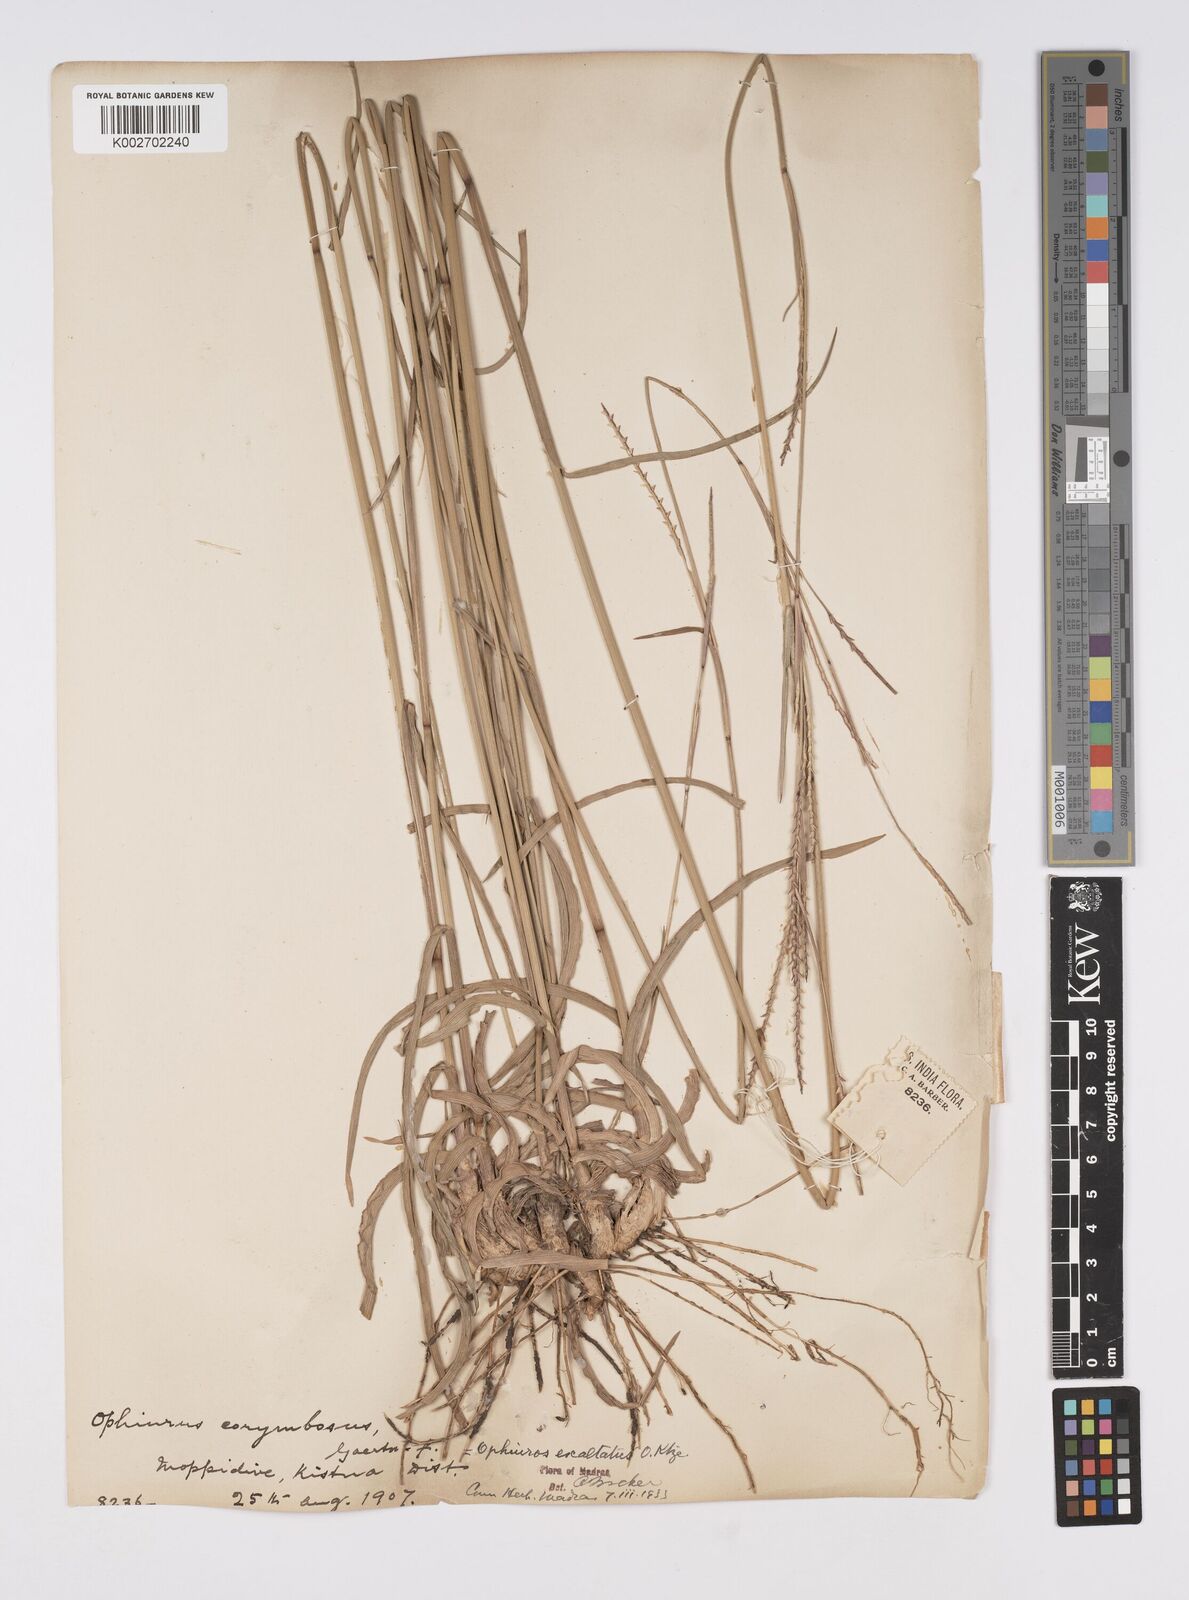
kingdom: Plantae
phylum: Tracheophyta
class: Liliopsida
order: Poales
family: Poaceae
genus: Ophiuros
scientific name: Ophiuros exaltatus
